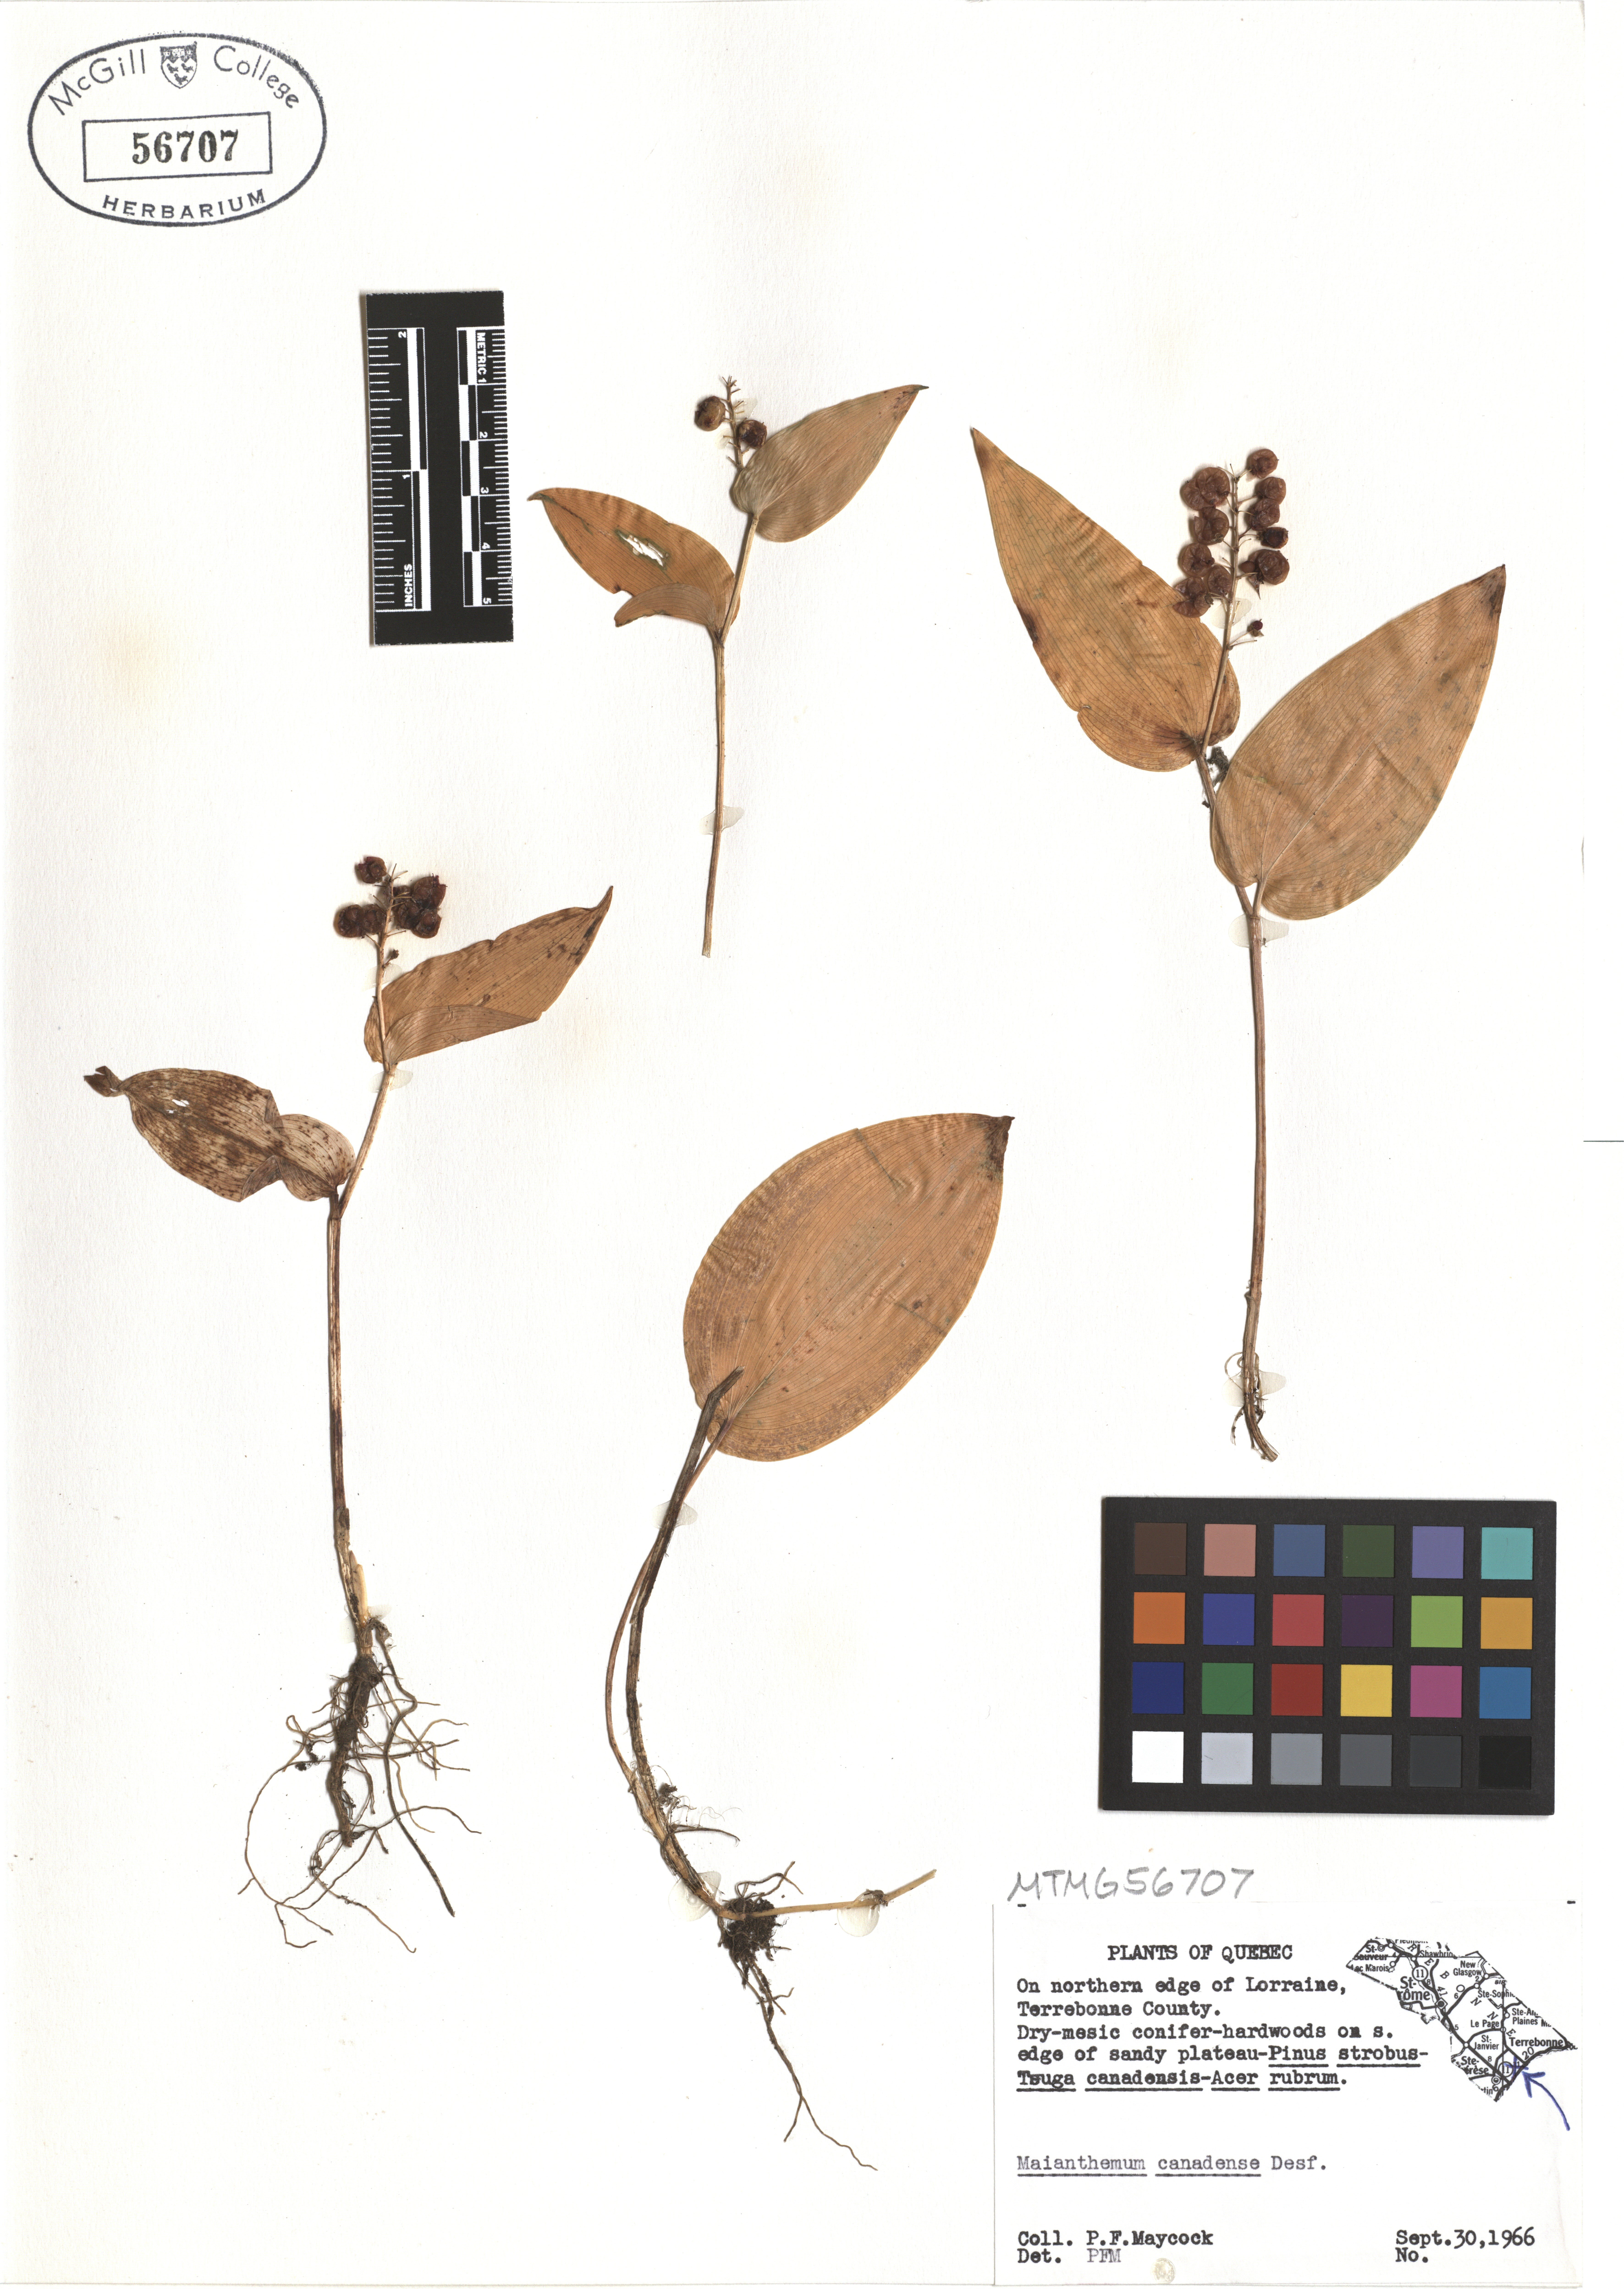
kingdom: Plantae
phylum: Tracheophyta
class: Liliopsida
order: Asparagales
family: Asparagaceae
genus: Maianthemum
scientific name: Maianthemum canadense
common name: False lily-of-the-valley
